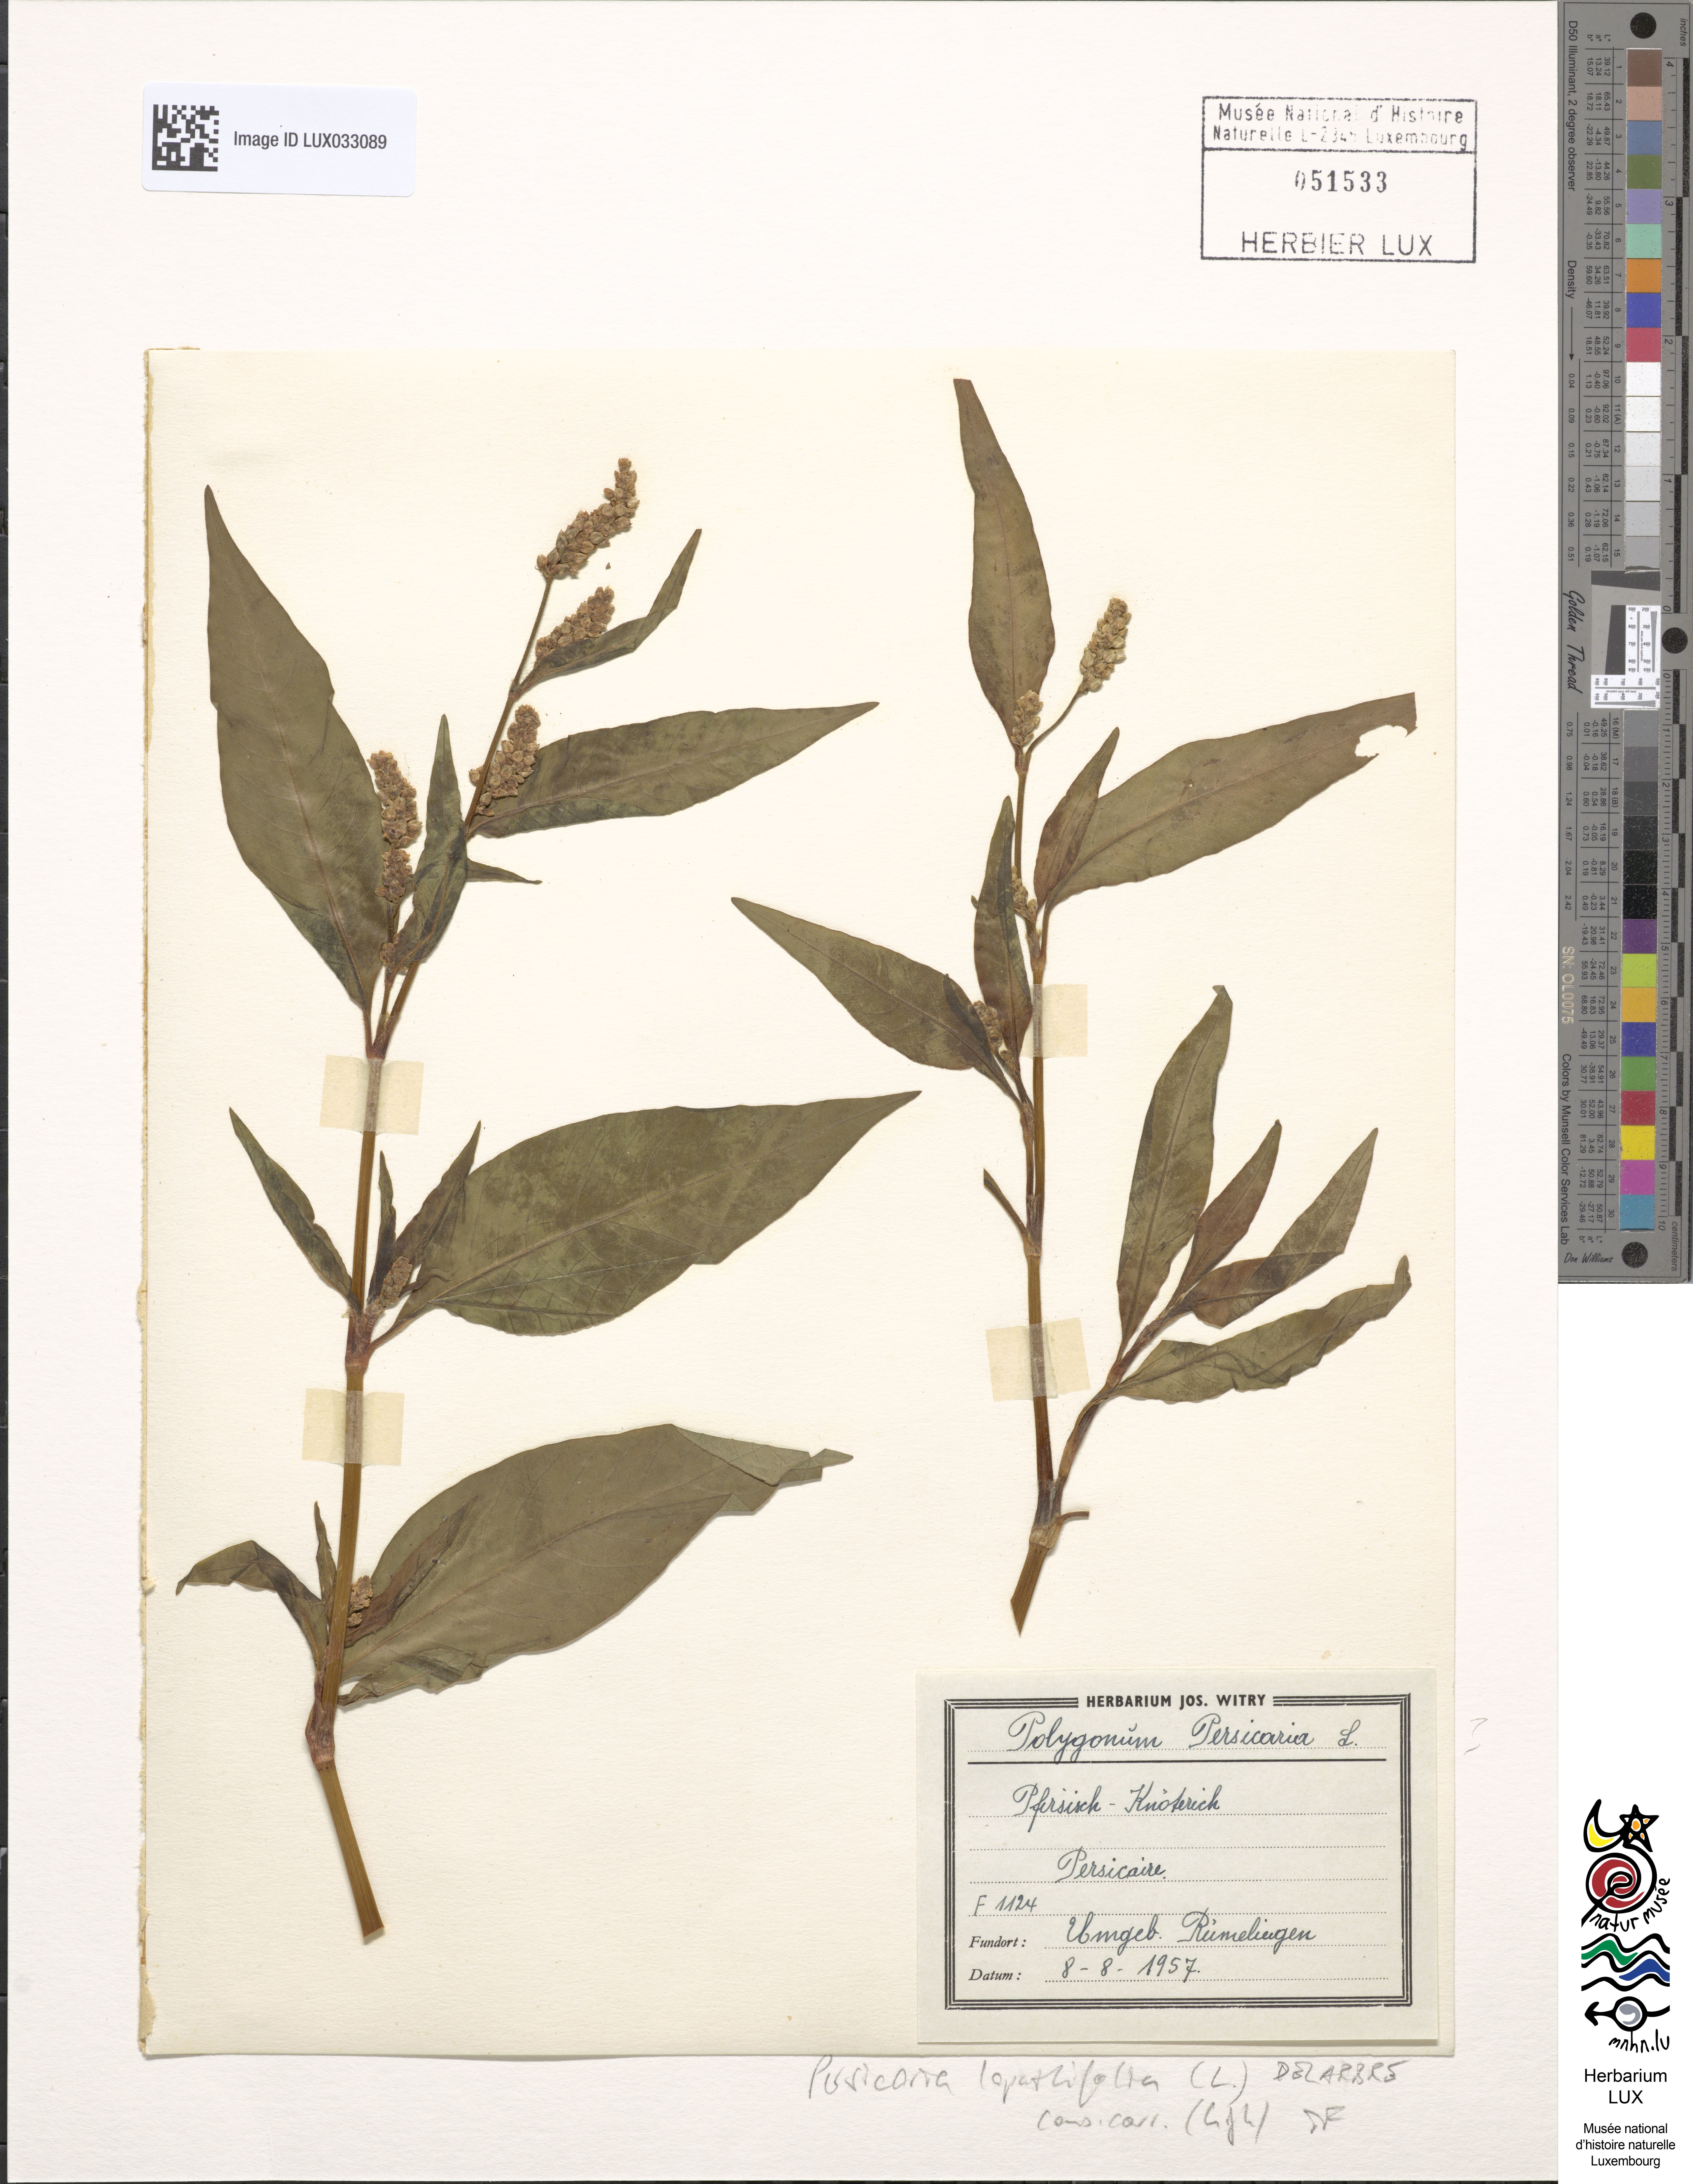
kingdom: Plantae
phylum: Tracheophyta
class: Magnoliopsida
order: Caryophyllales
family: Polygonaceae
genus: Persicaria
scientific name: Persicaria lapathifolia
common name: Curlytop knotweed
